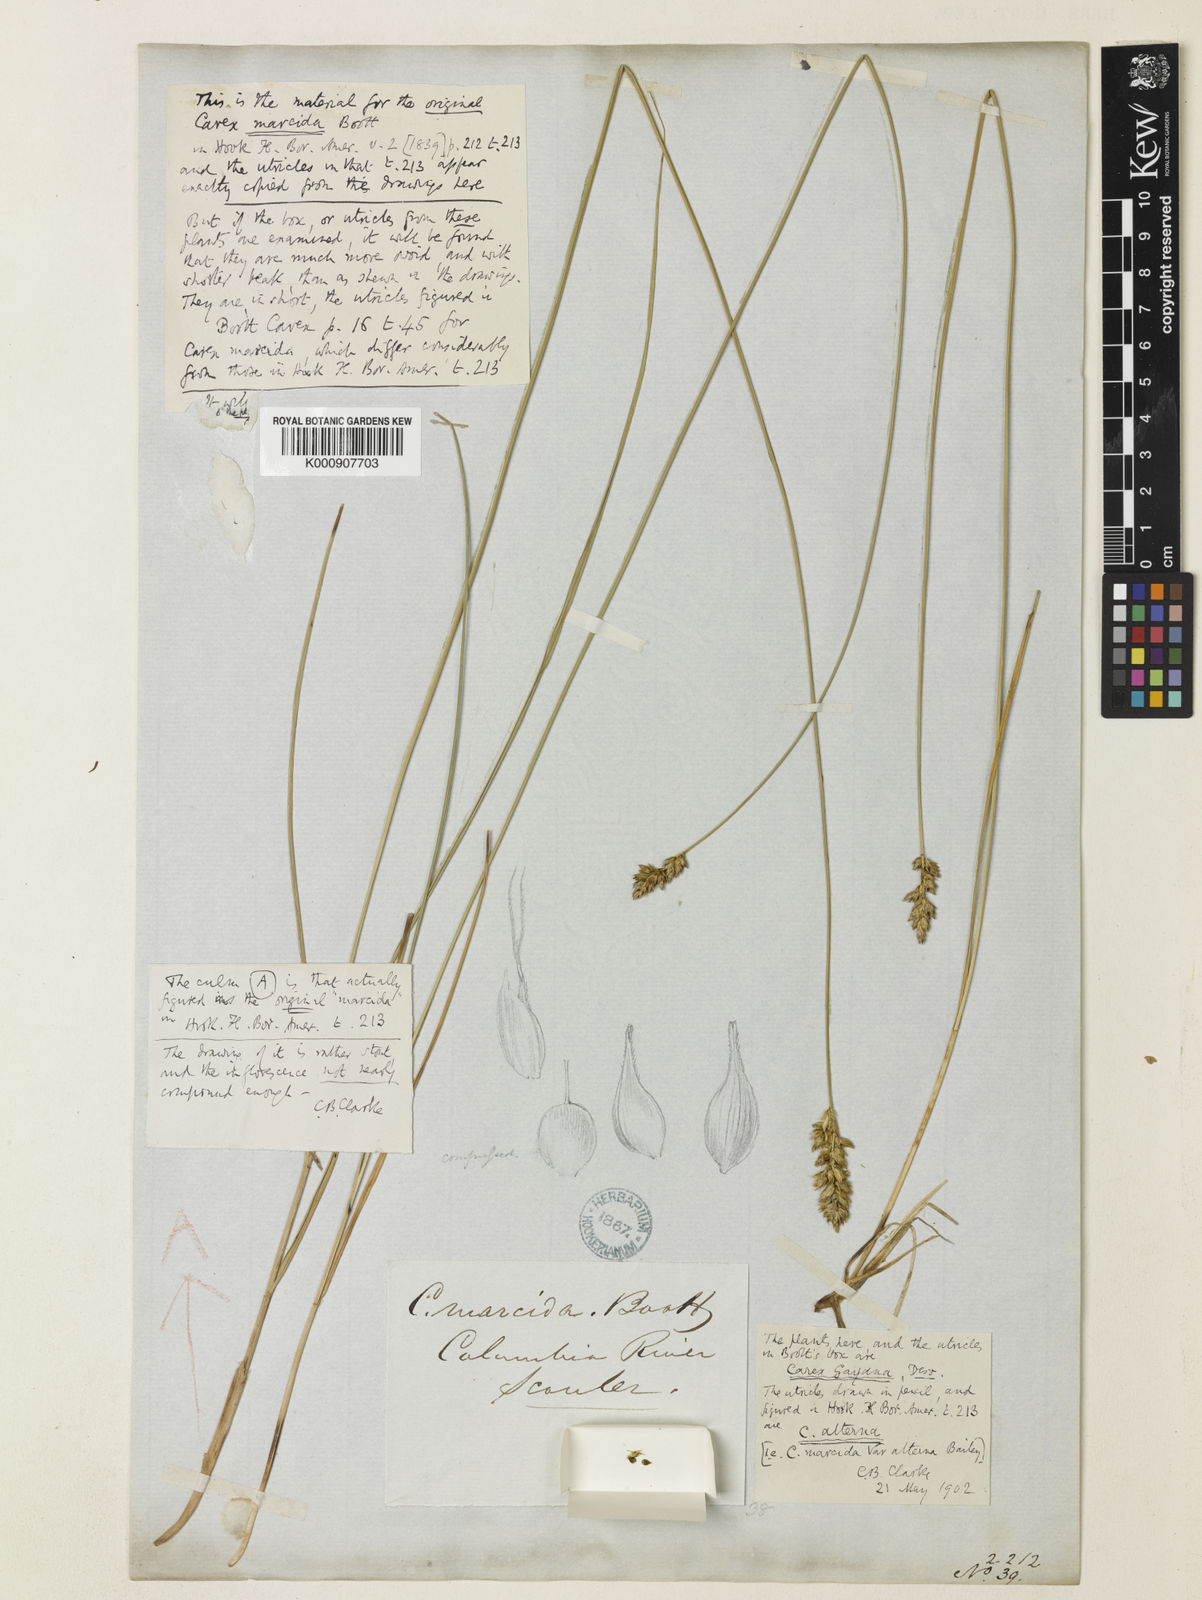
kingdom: Plantae
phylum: Tracheophyta
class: Liliopsida
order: Poales
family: Cyperaceae
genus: Carex
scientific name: Carex praegracilis
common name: Black creeper sedge
